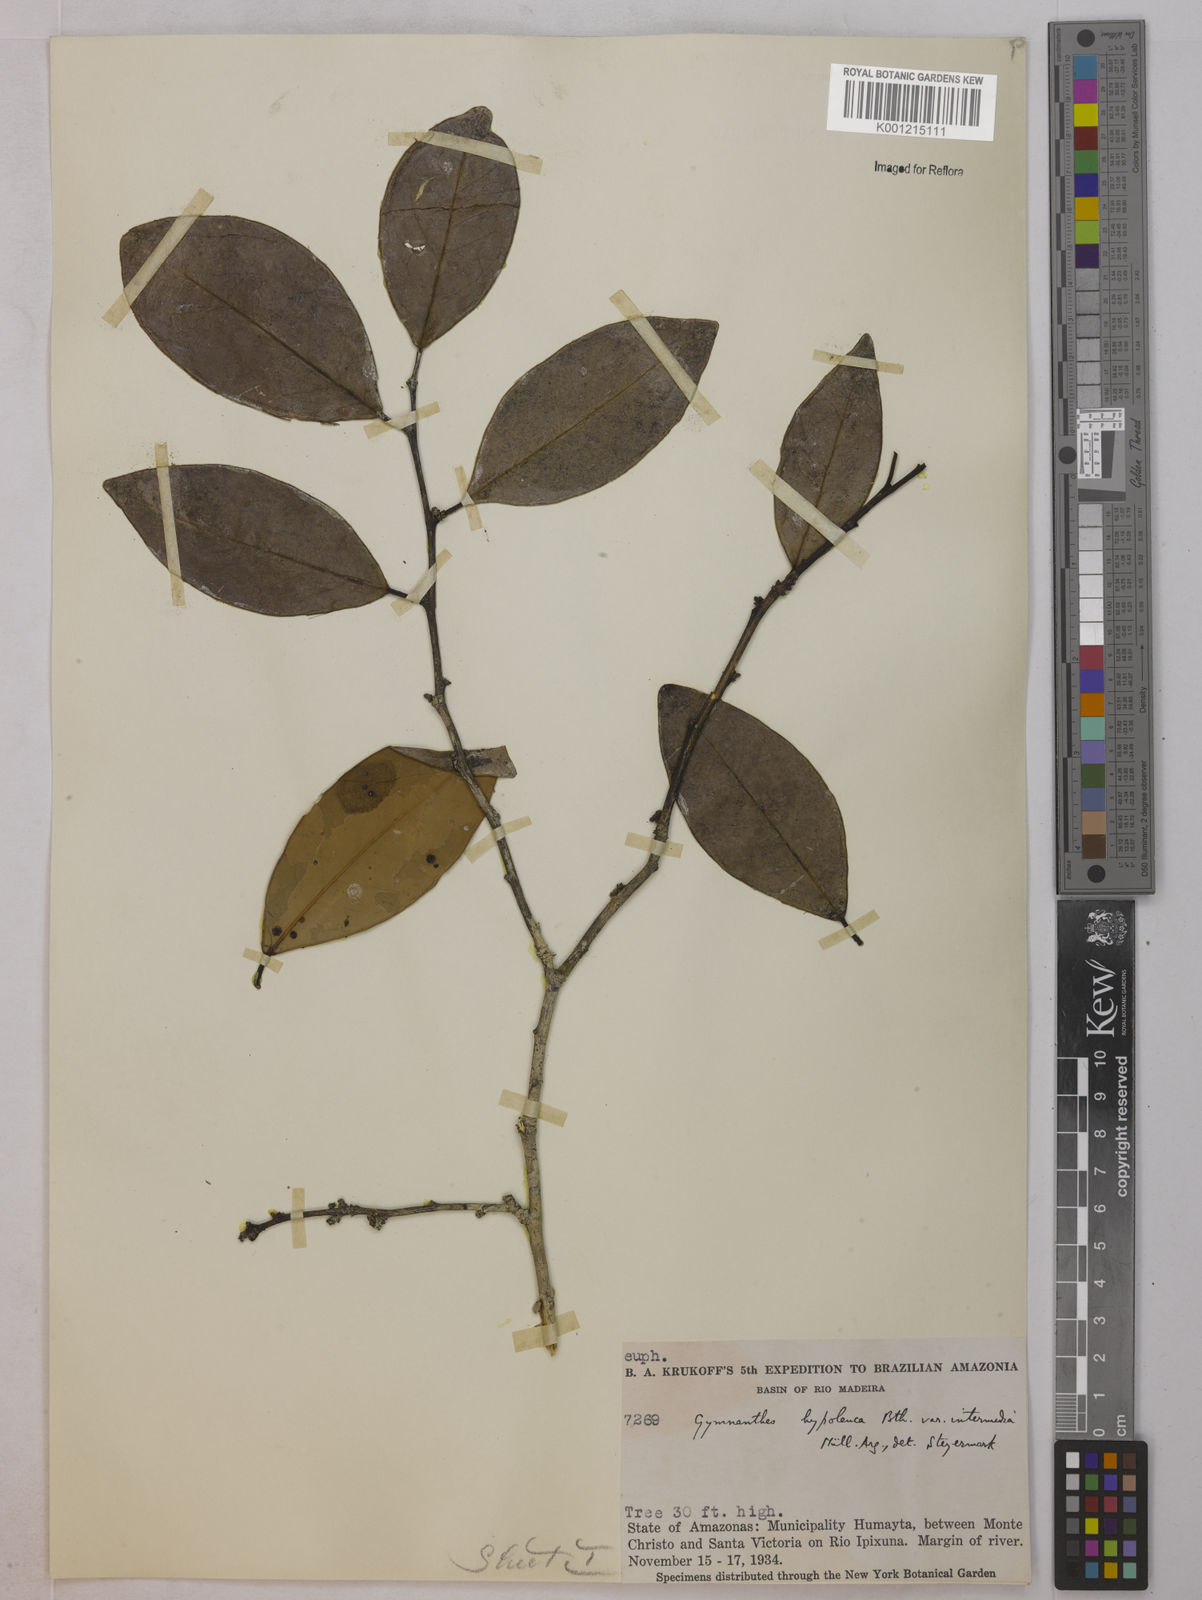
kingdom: Plantae
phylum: Tracheophyta
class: Magnoliopsida
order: Malpighiales
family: Euphorbiaceae
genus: Gymnanthes
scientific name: Gymnanthes hypoleuca
